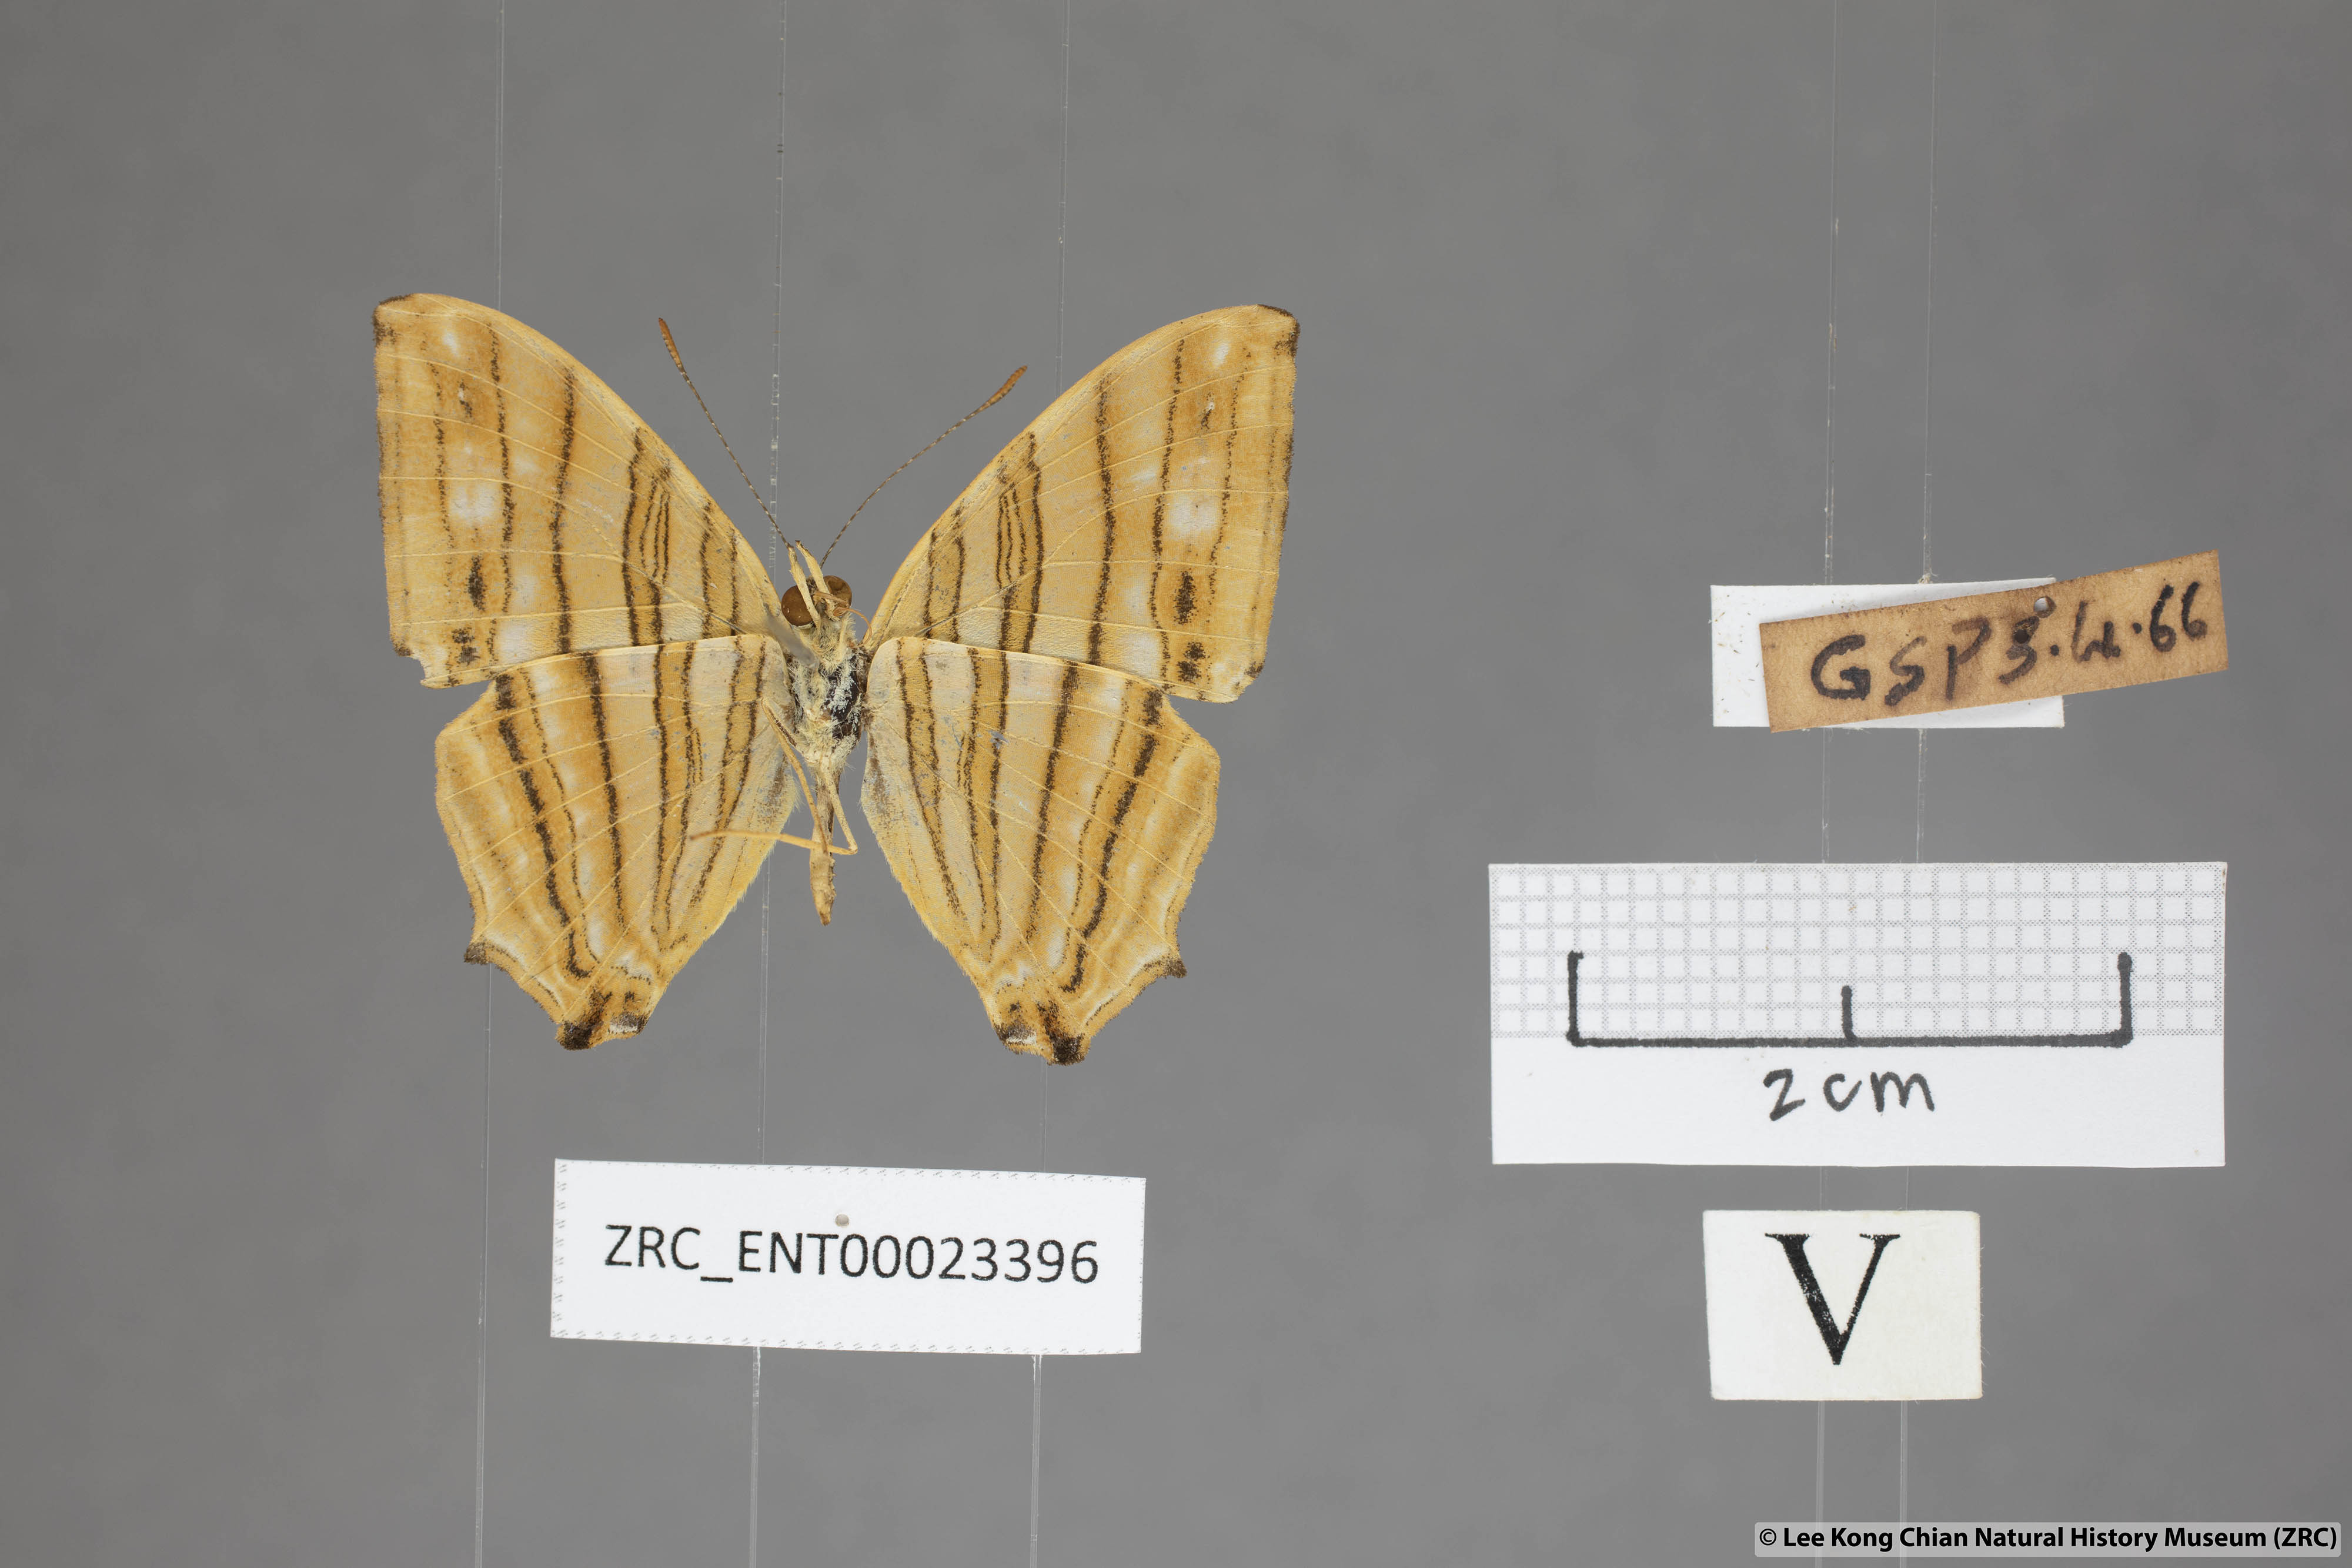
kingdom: Animalia
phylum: Arthropoda
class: Insecta
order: Lepidoptera
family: Nymphalidae
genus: Chersonesia
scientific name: Chersonesia risa
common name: Common maplet
